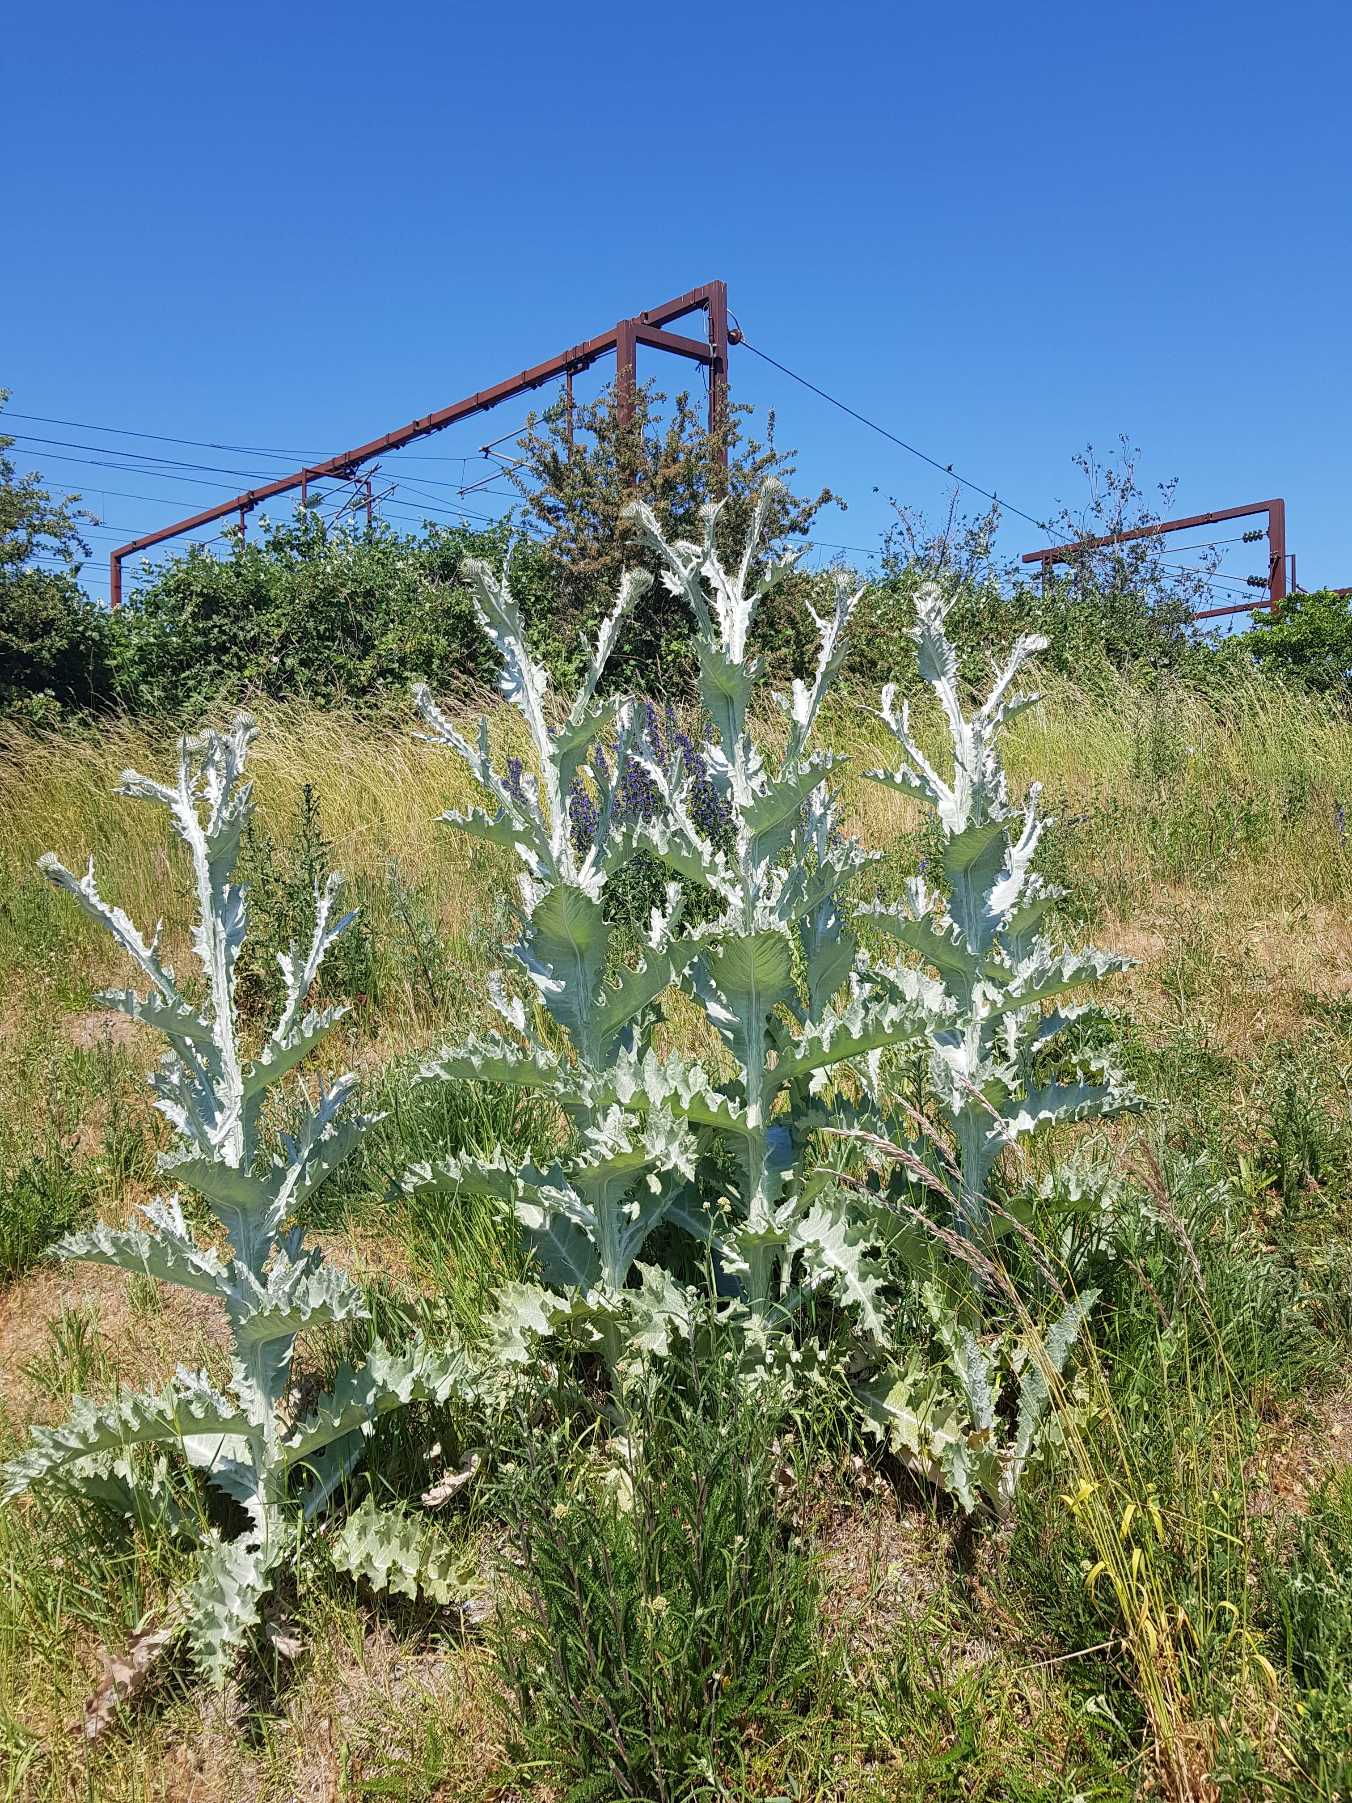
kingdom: Plantae
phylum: Tracheophyta
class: Magnoliopsida
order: Asterales
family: Asteraceae
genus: Onopordum
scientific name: Onopordum acanthium
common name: Æselfoder
